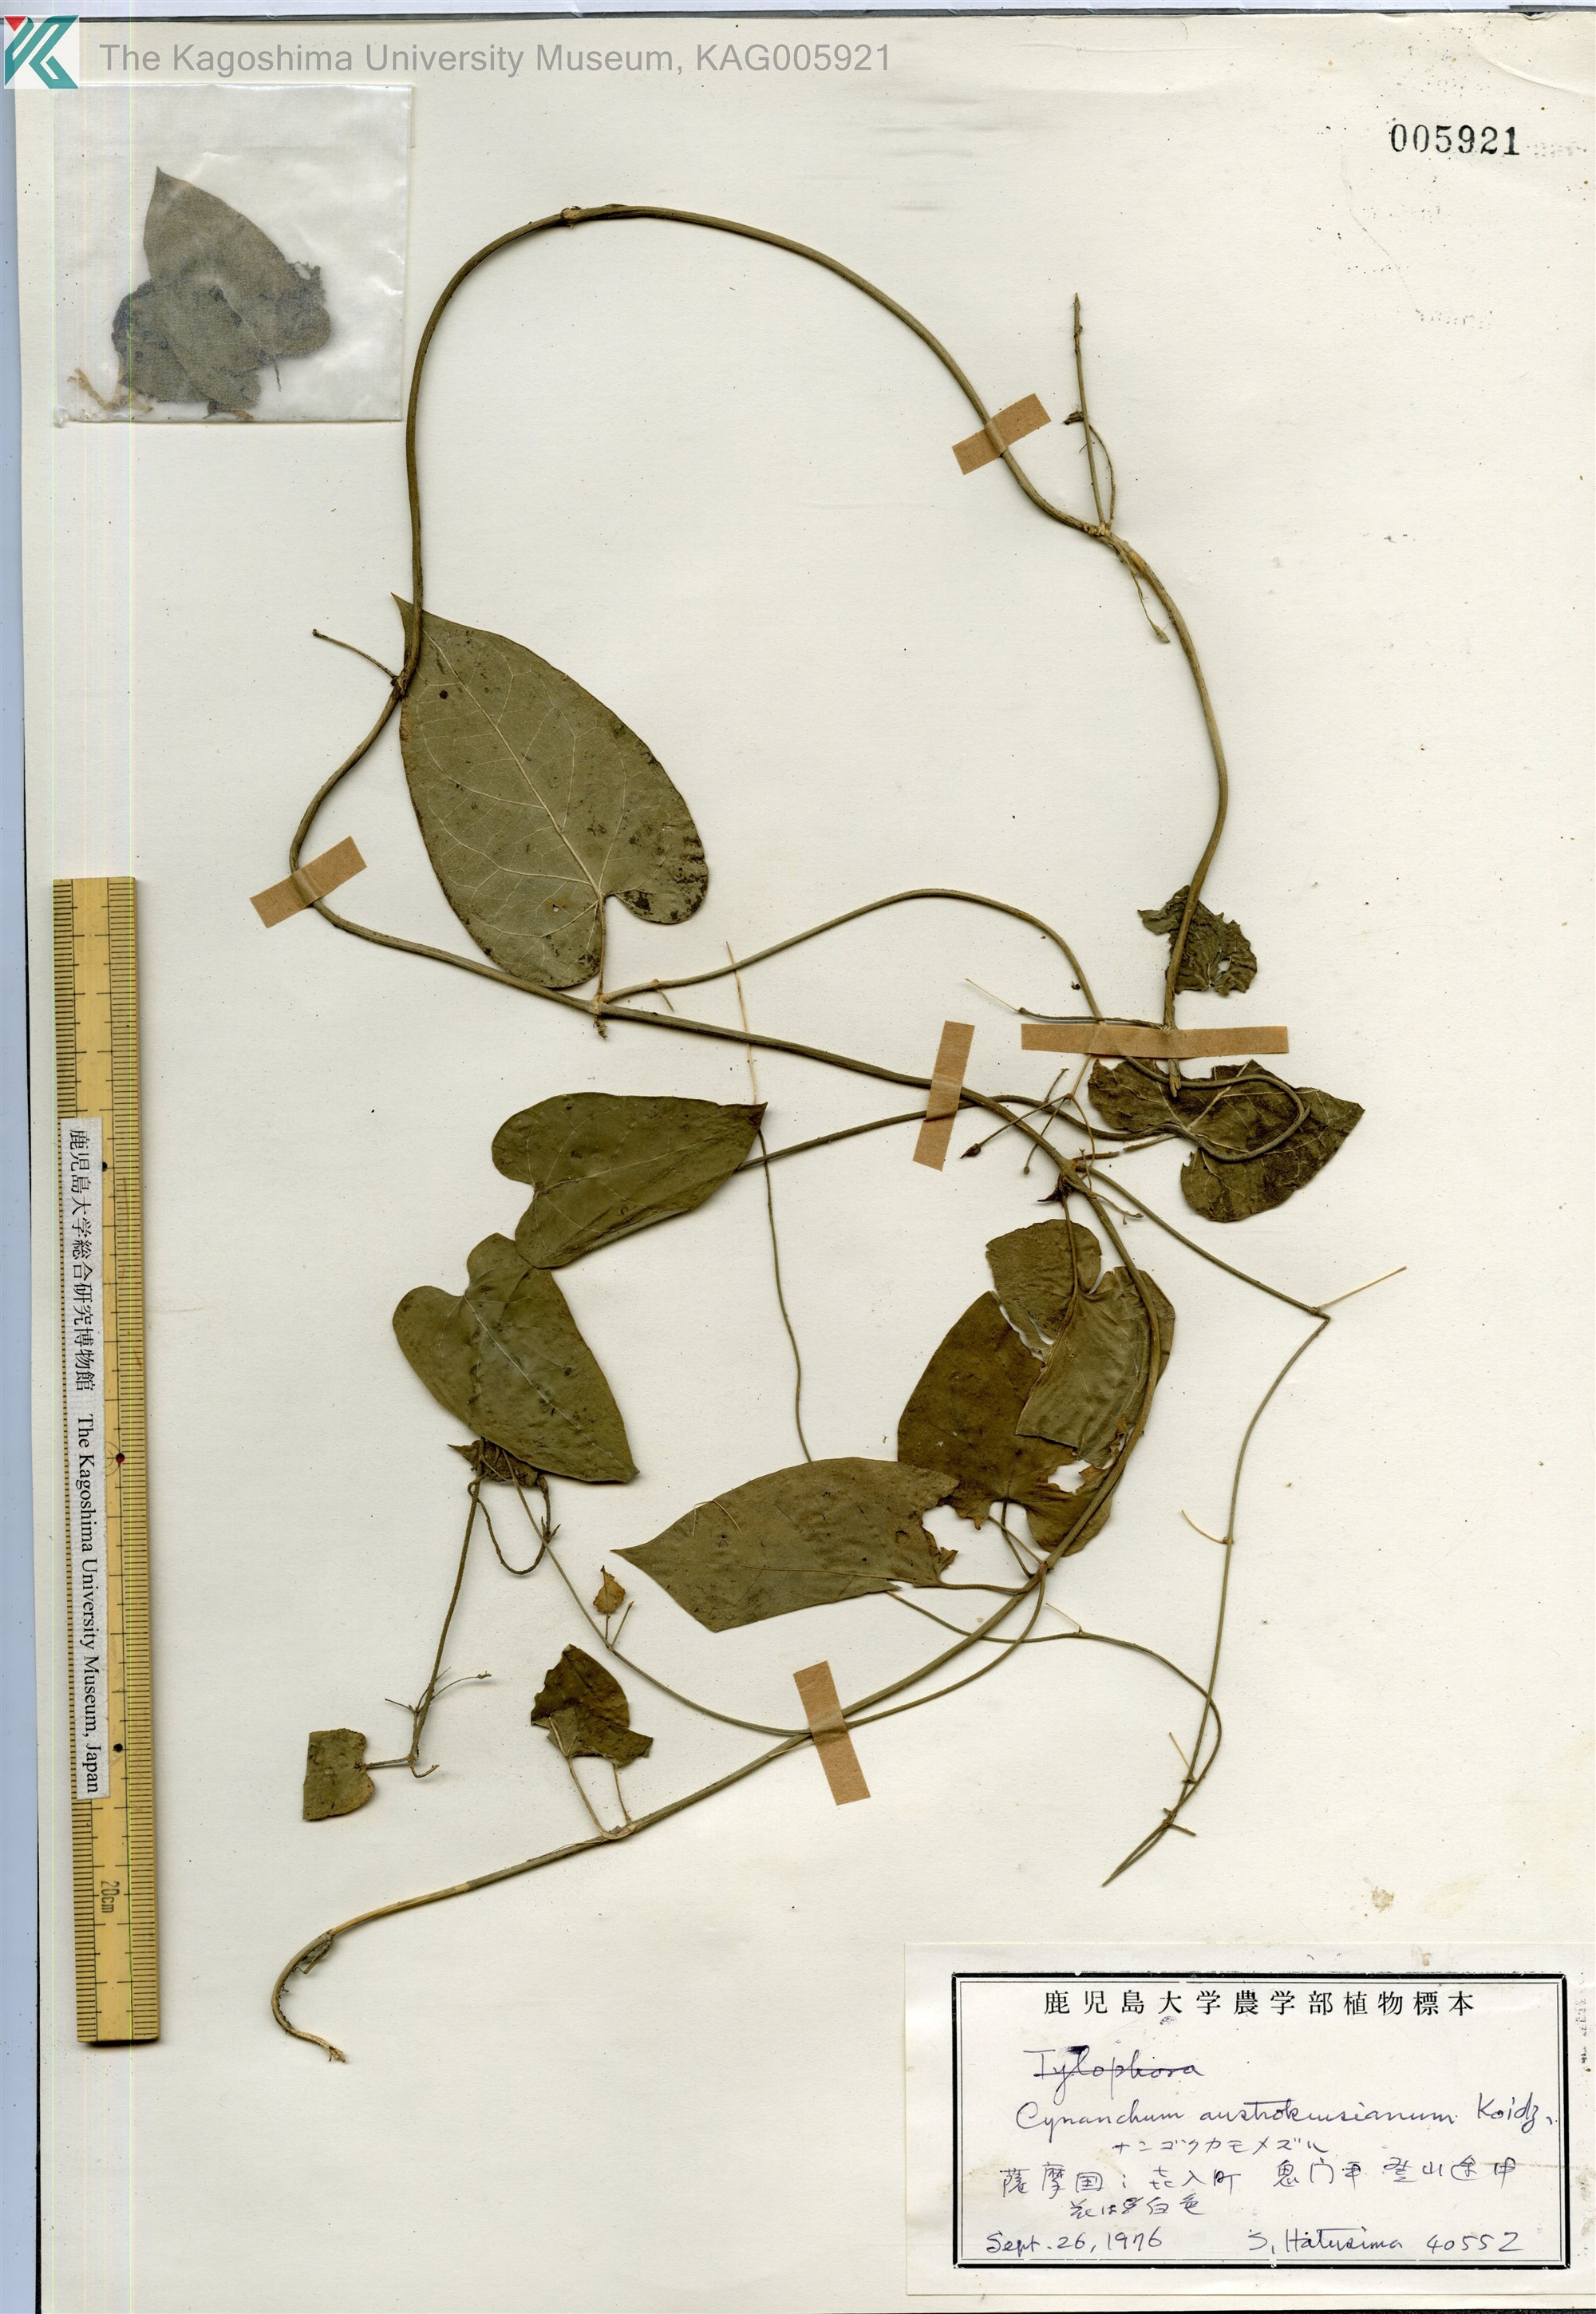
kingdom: Plantae
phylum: Tracheophyta
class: Magnoliopsida
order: Gentianales
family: Apocynaceae
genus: Vincetoxicum
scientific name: Vincetoxicum austrokiusianum
